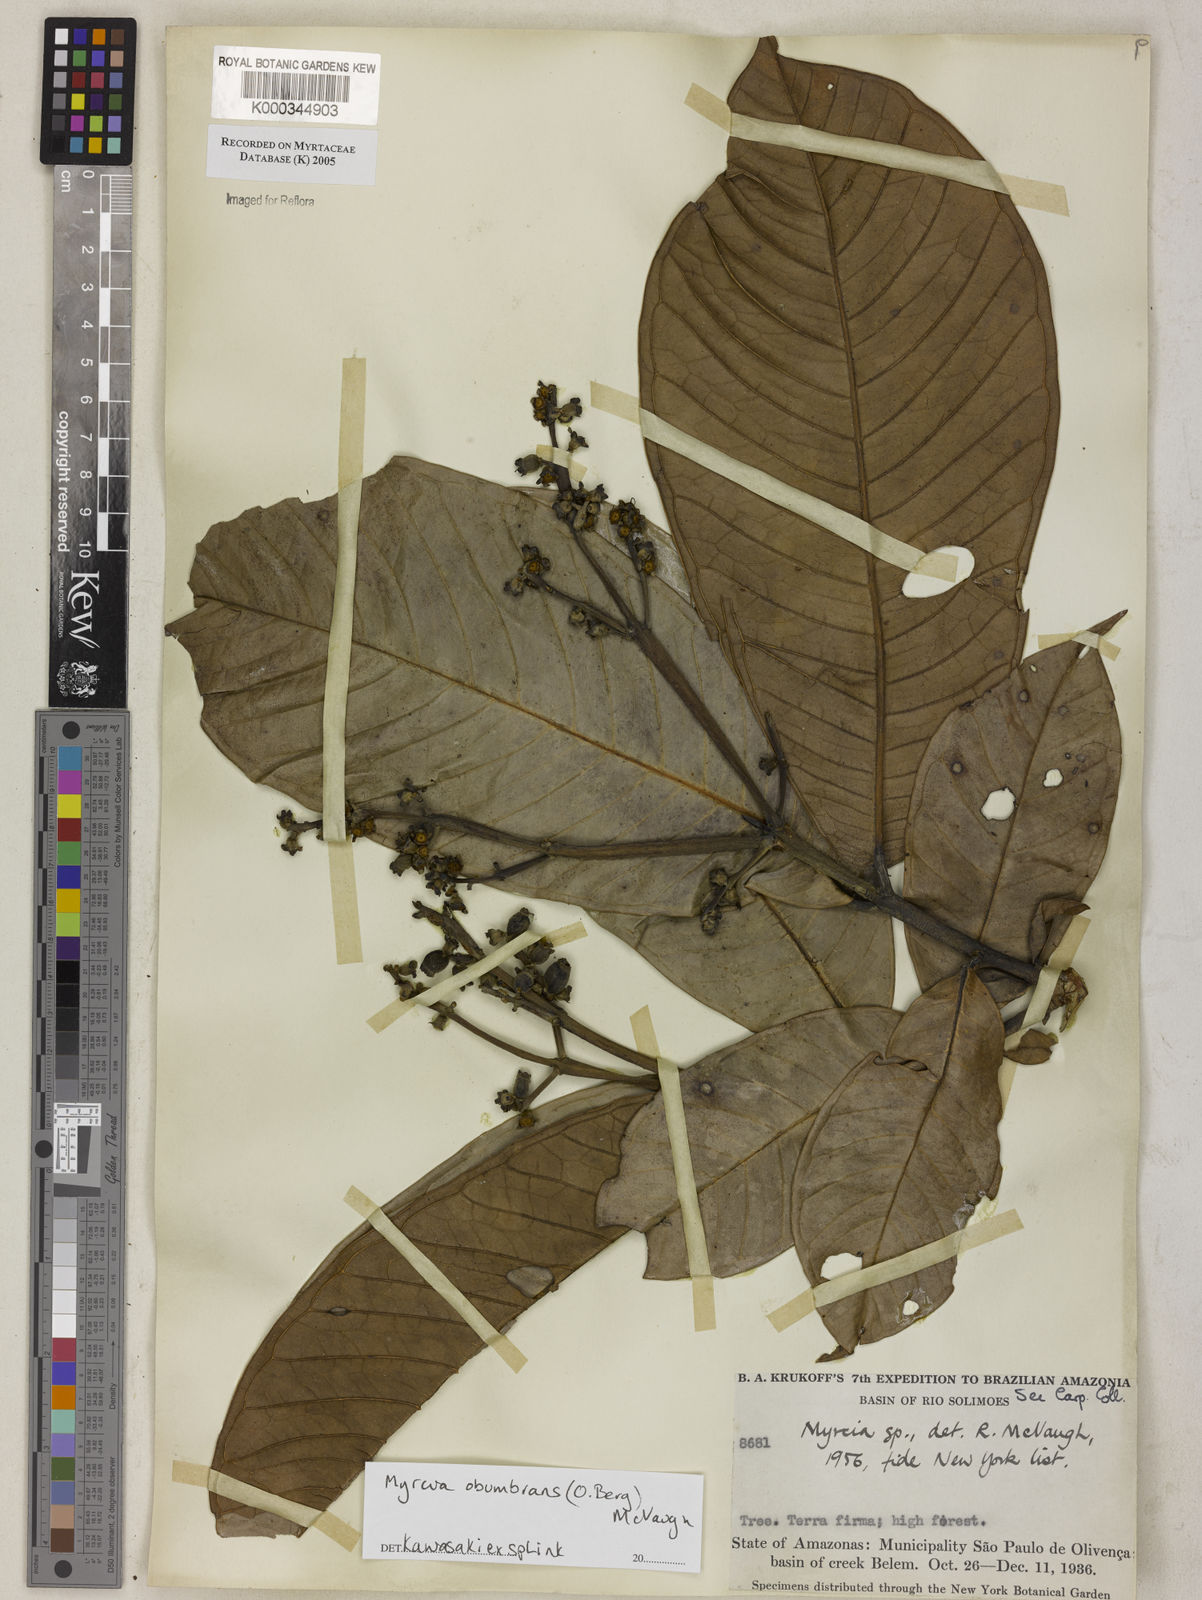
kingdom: Plantae
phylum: Tracheophyta
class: Magnoliopsida
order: Myrtales
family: Myrtaceae
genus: Myrcia
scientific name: Myrcia
